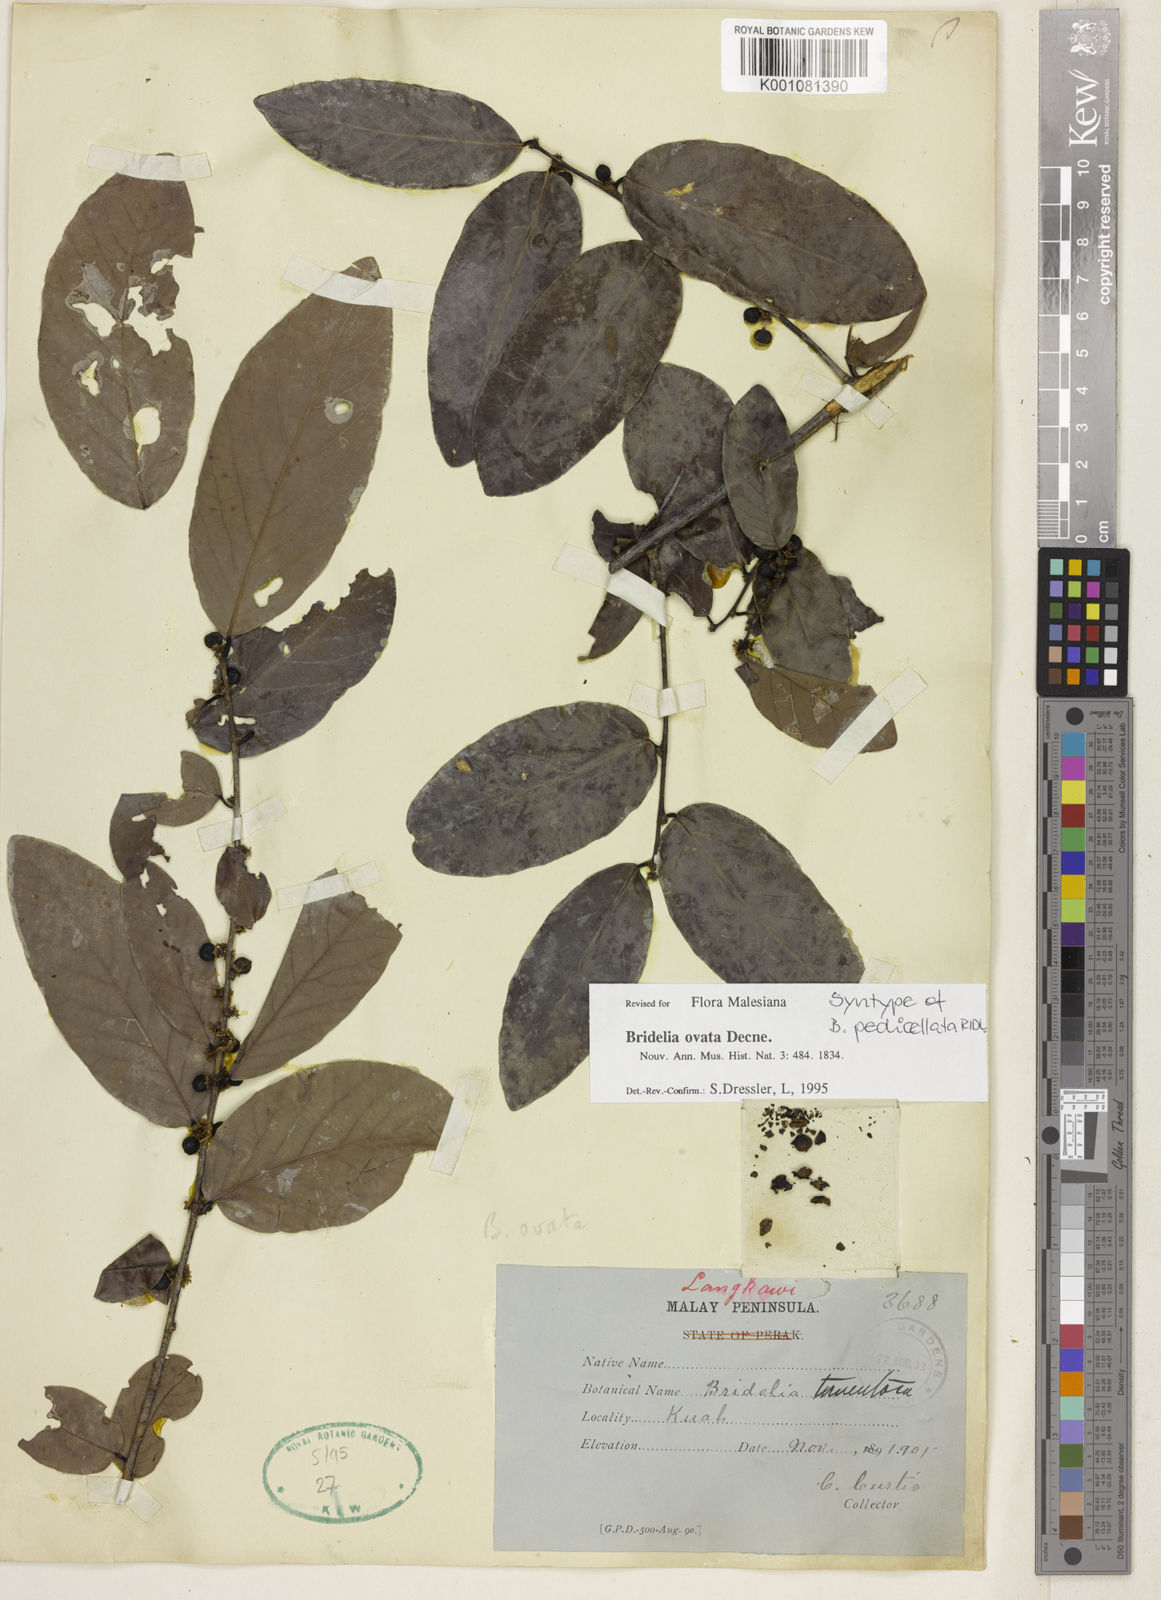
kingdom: Plantae
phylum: Tracheophyta
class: Magnoliopsida
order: Malpighiales
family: Phyllanthaceae
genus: Bridelia
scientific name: Bridelia ovata
